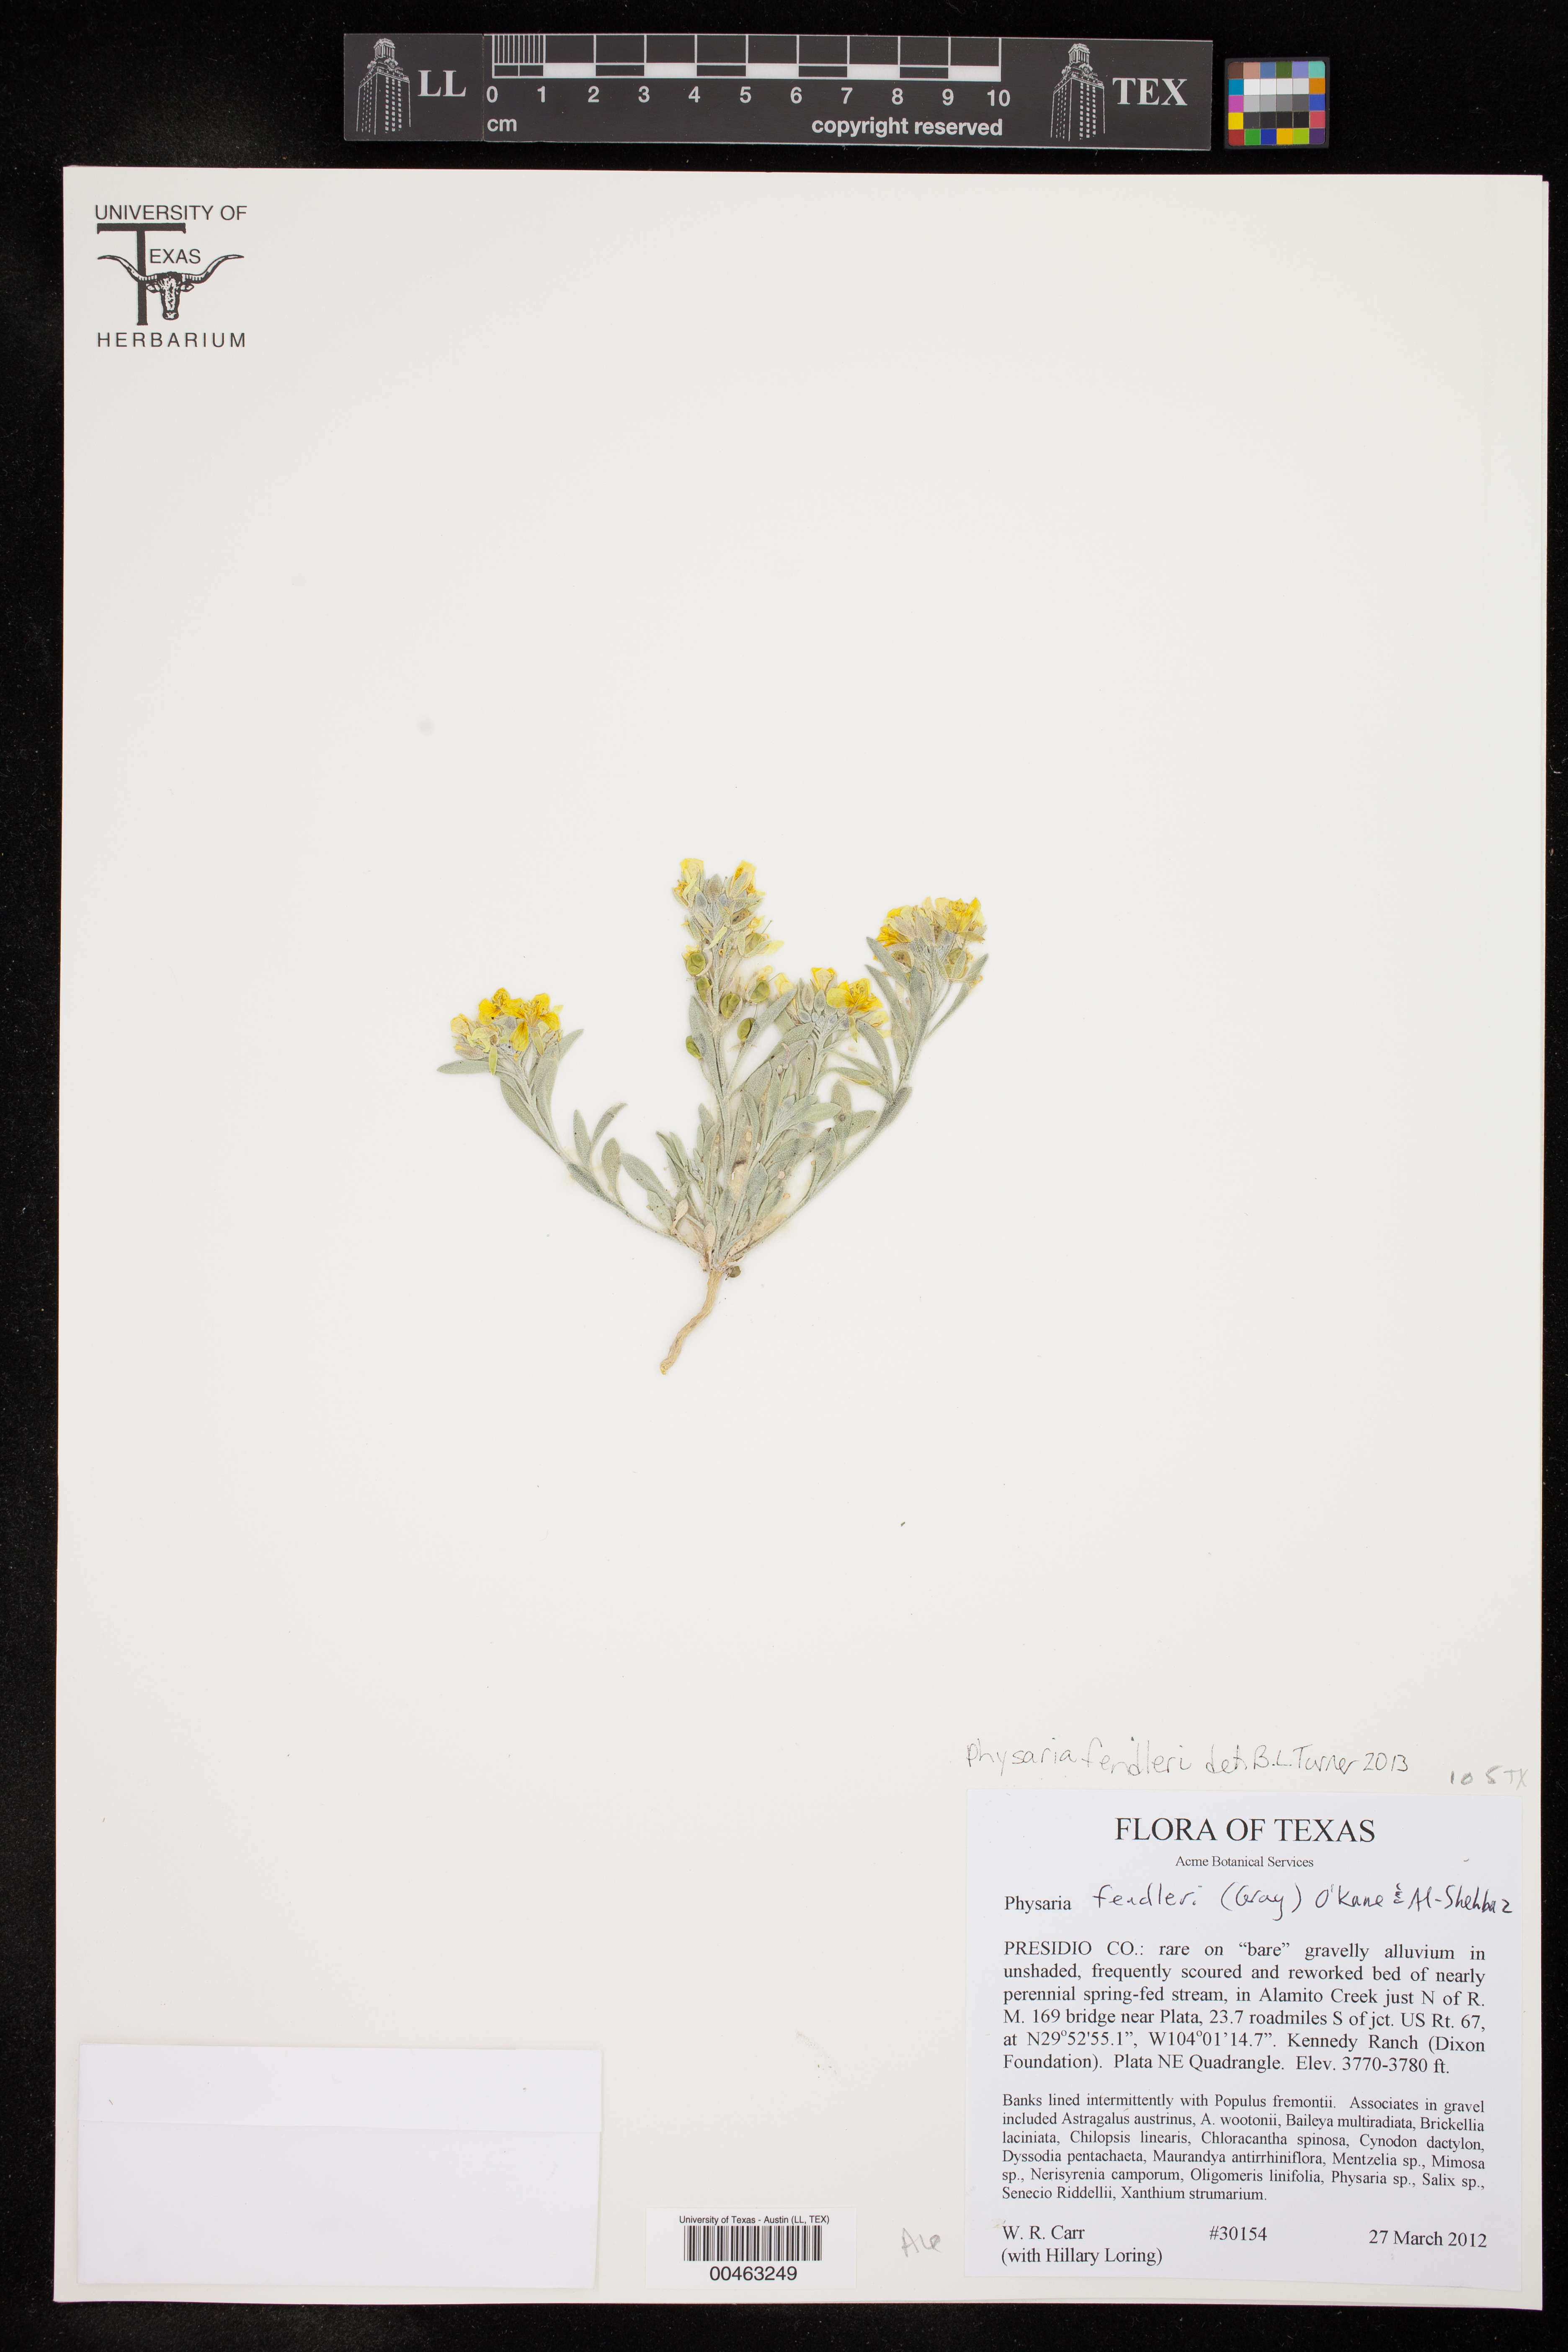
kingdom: Plantae
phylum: Tracheophyta
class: Magnoliopsida
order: Brassicales
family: Brassicaceae
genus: Physaria
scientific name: Physaria fendleri
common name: Fendler's bladderpod
